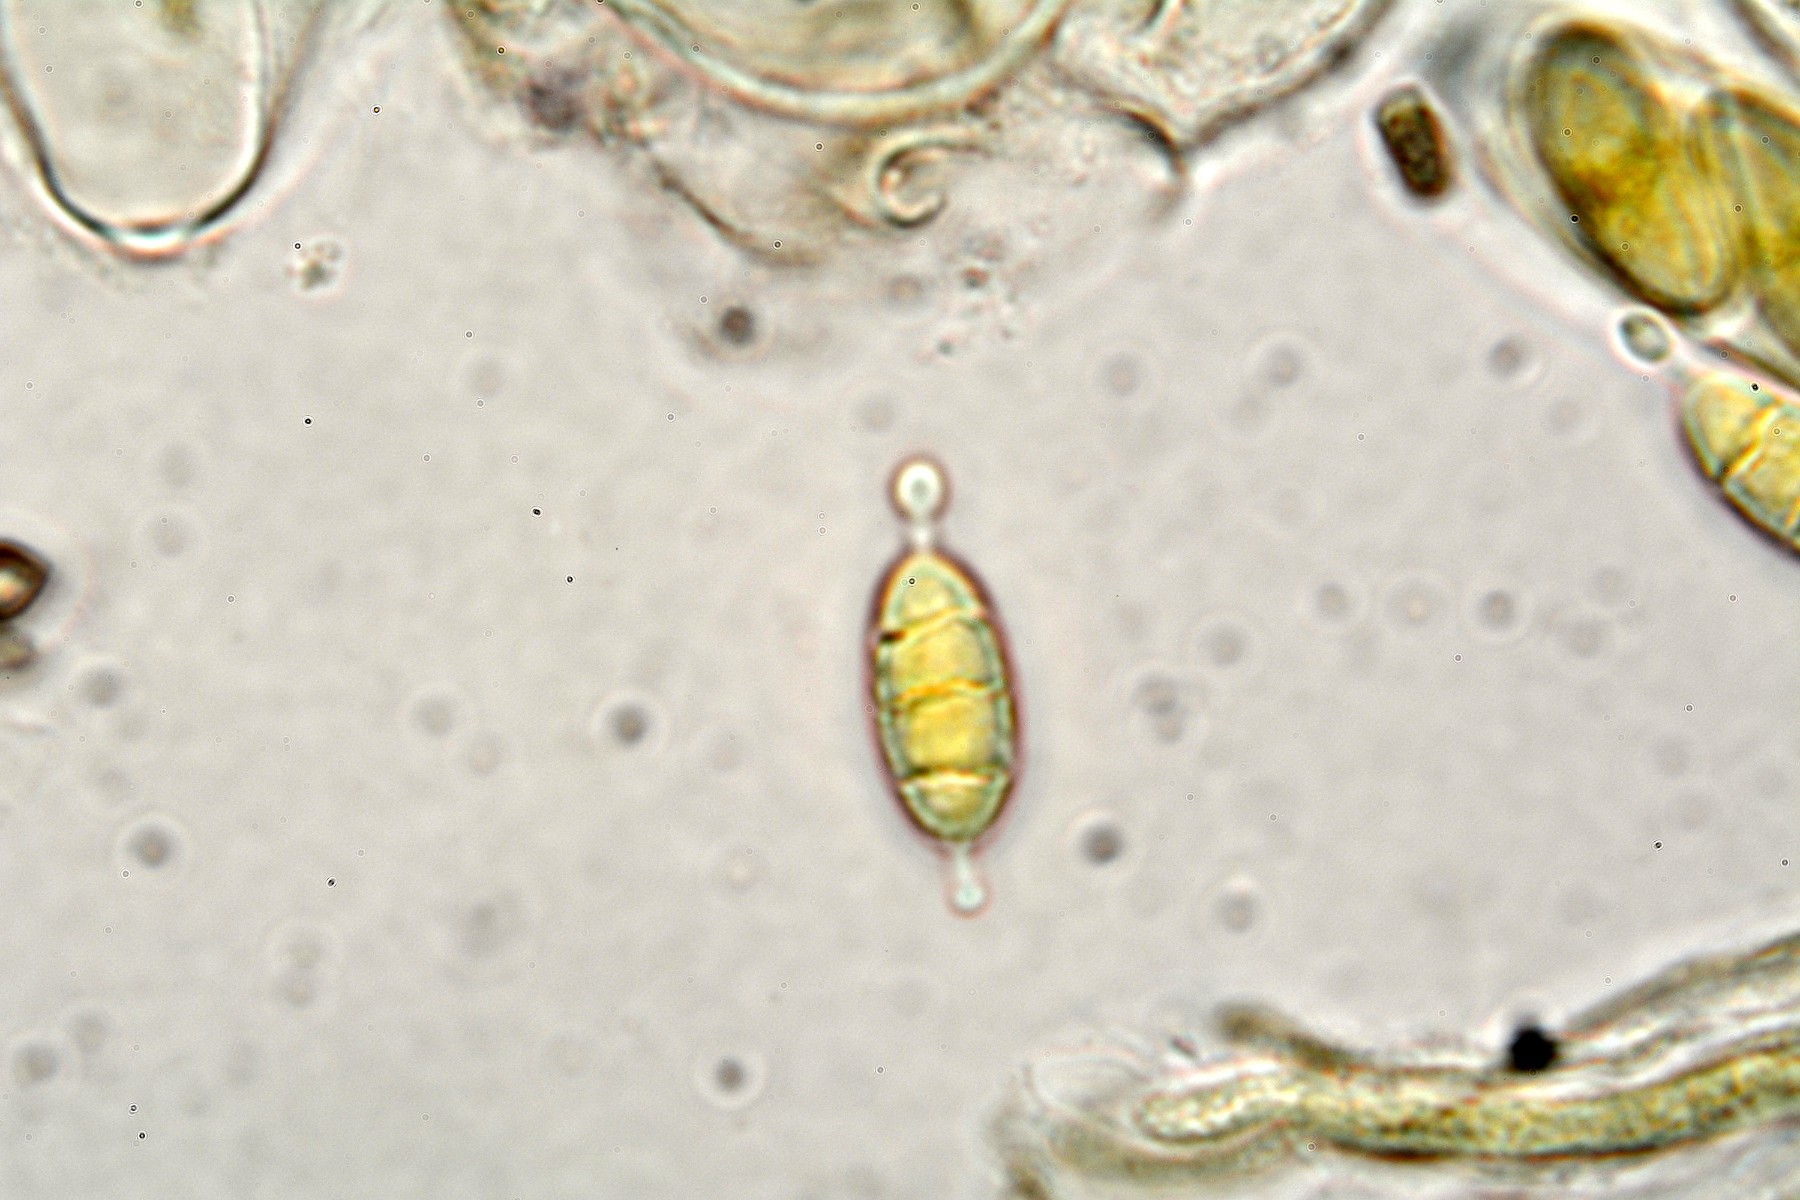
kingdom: Fungi
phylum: Ascomycota
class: Leotiomycetes
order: Helotiales
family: Rutstroemiaceae
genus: Lanzia
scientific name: Lanzia luteovirescens
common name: olivengul brunskive
